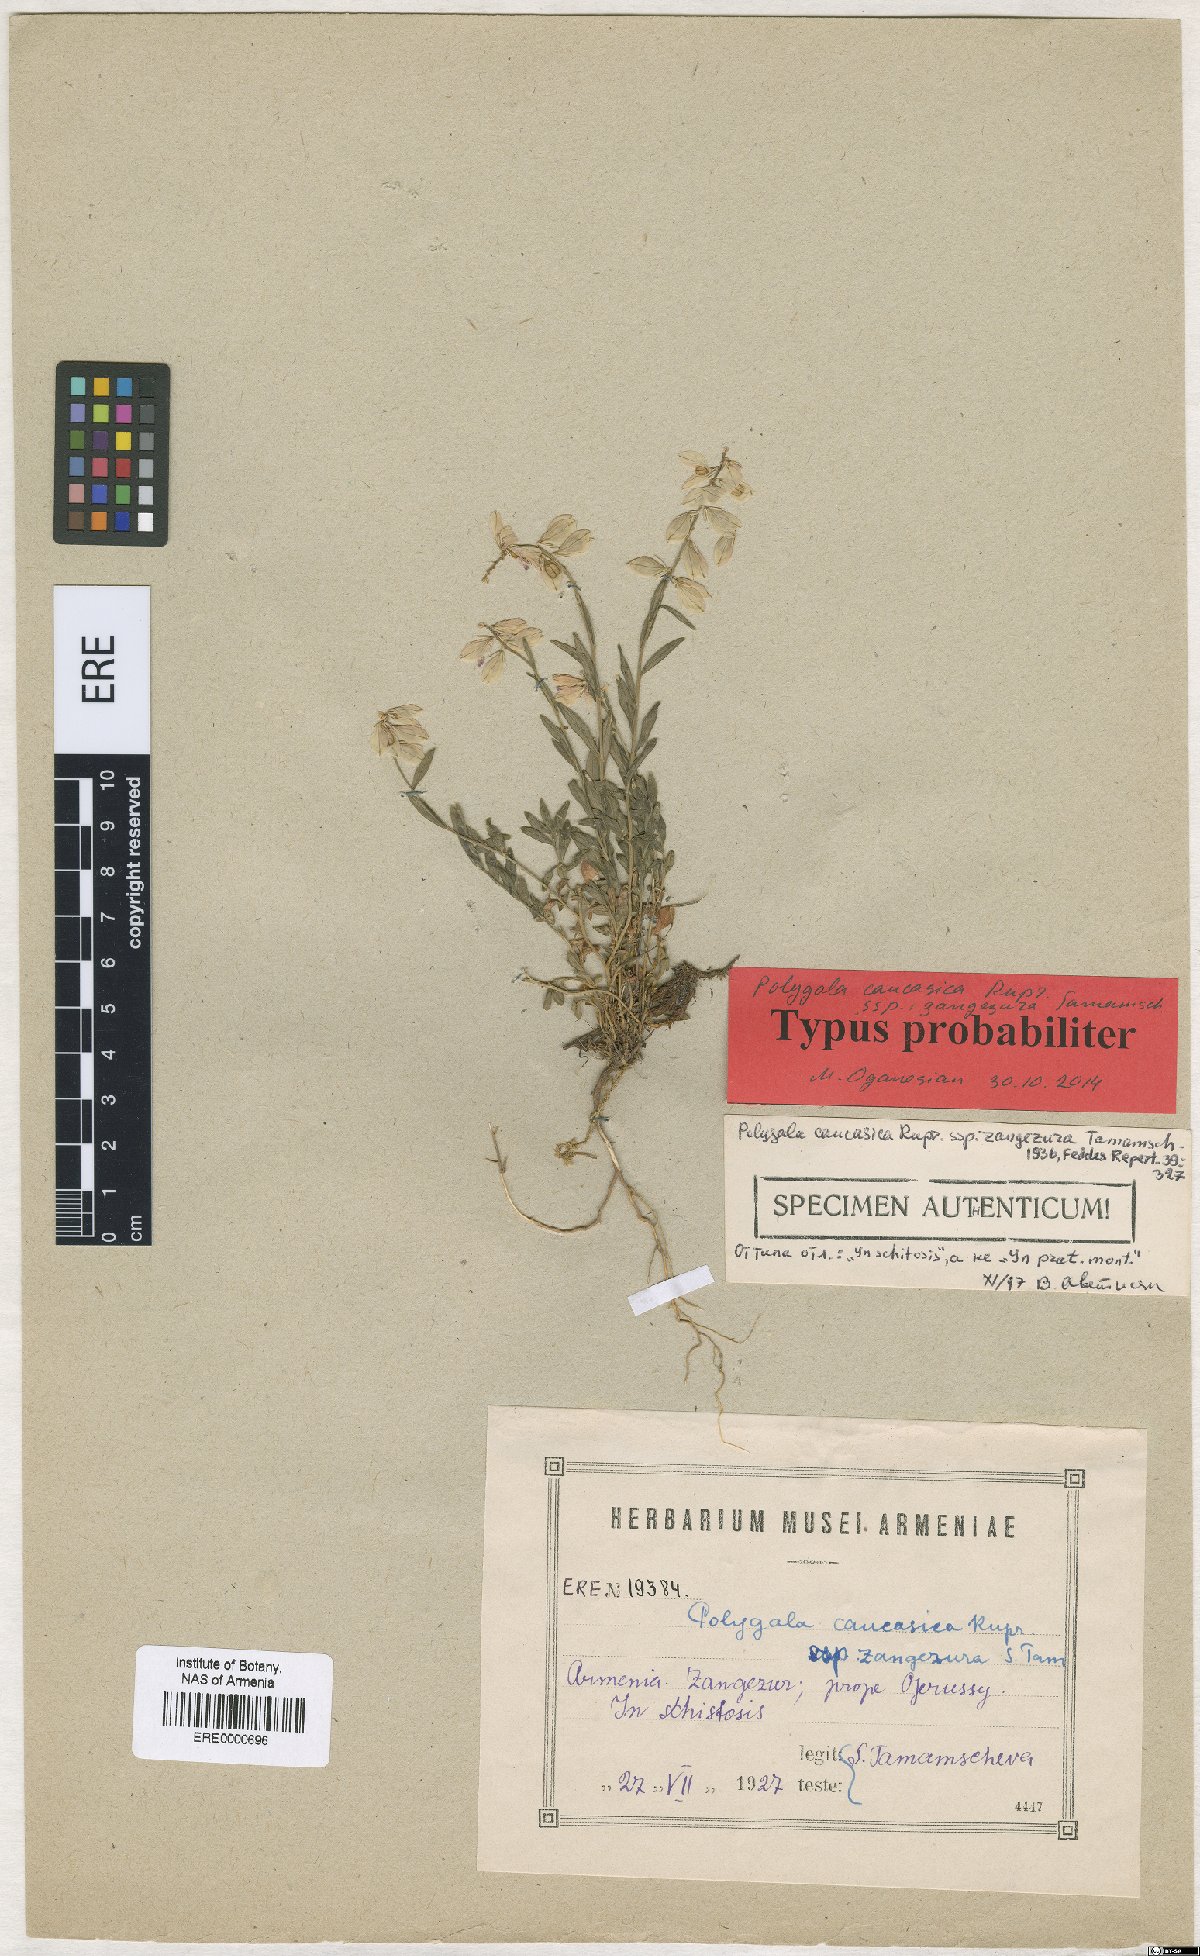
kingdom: Plantae
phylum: Tracheophyta
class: Magnoliopsida
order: Fabales
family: Polygalaceae
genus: Polygala
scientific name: Polygala caucasica
